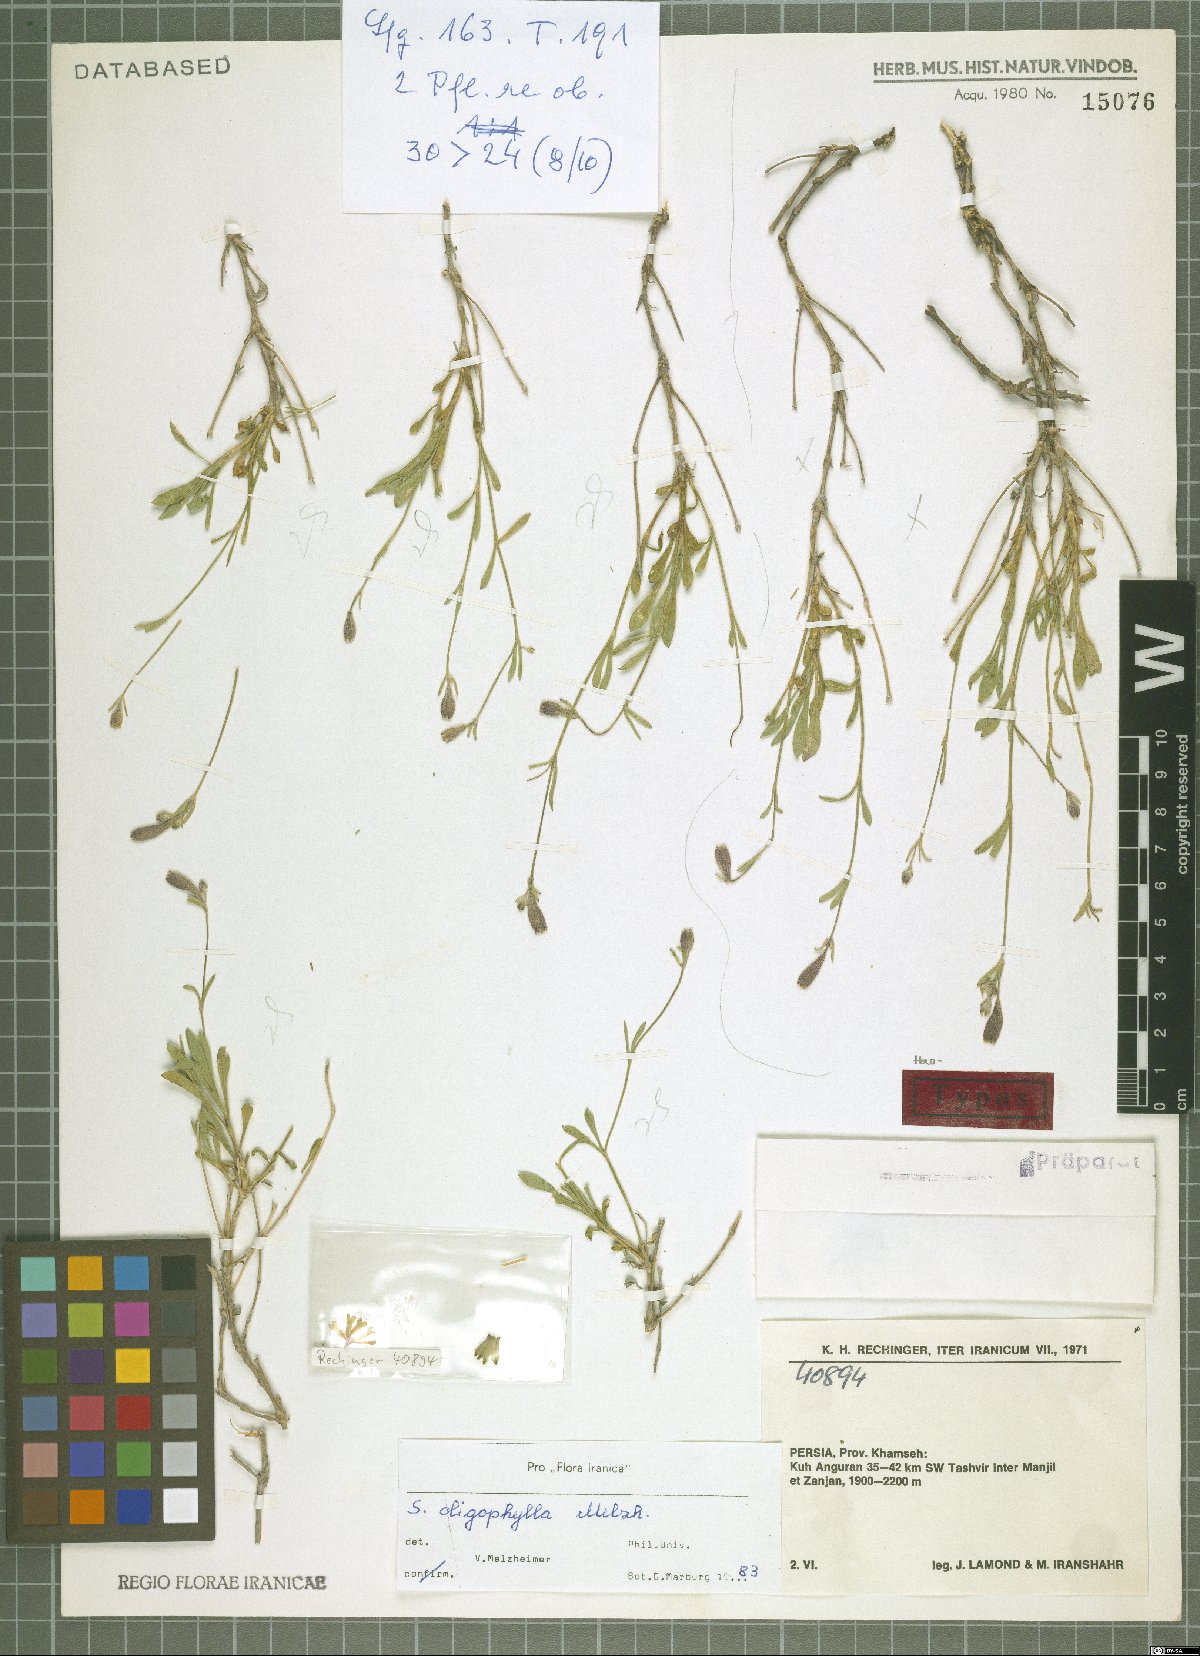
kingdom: Plantae
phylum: Tracheophyta
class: Magnoliopsida
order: Caryophyllales
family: Caryophyllaceae
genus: Silene
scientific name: Silene montbretiana
